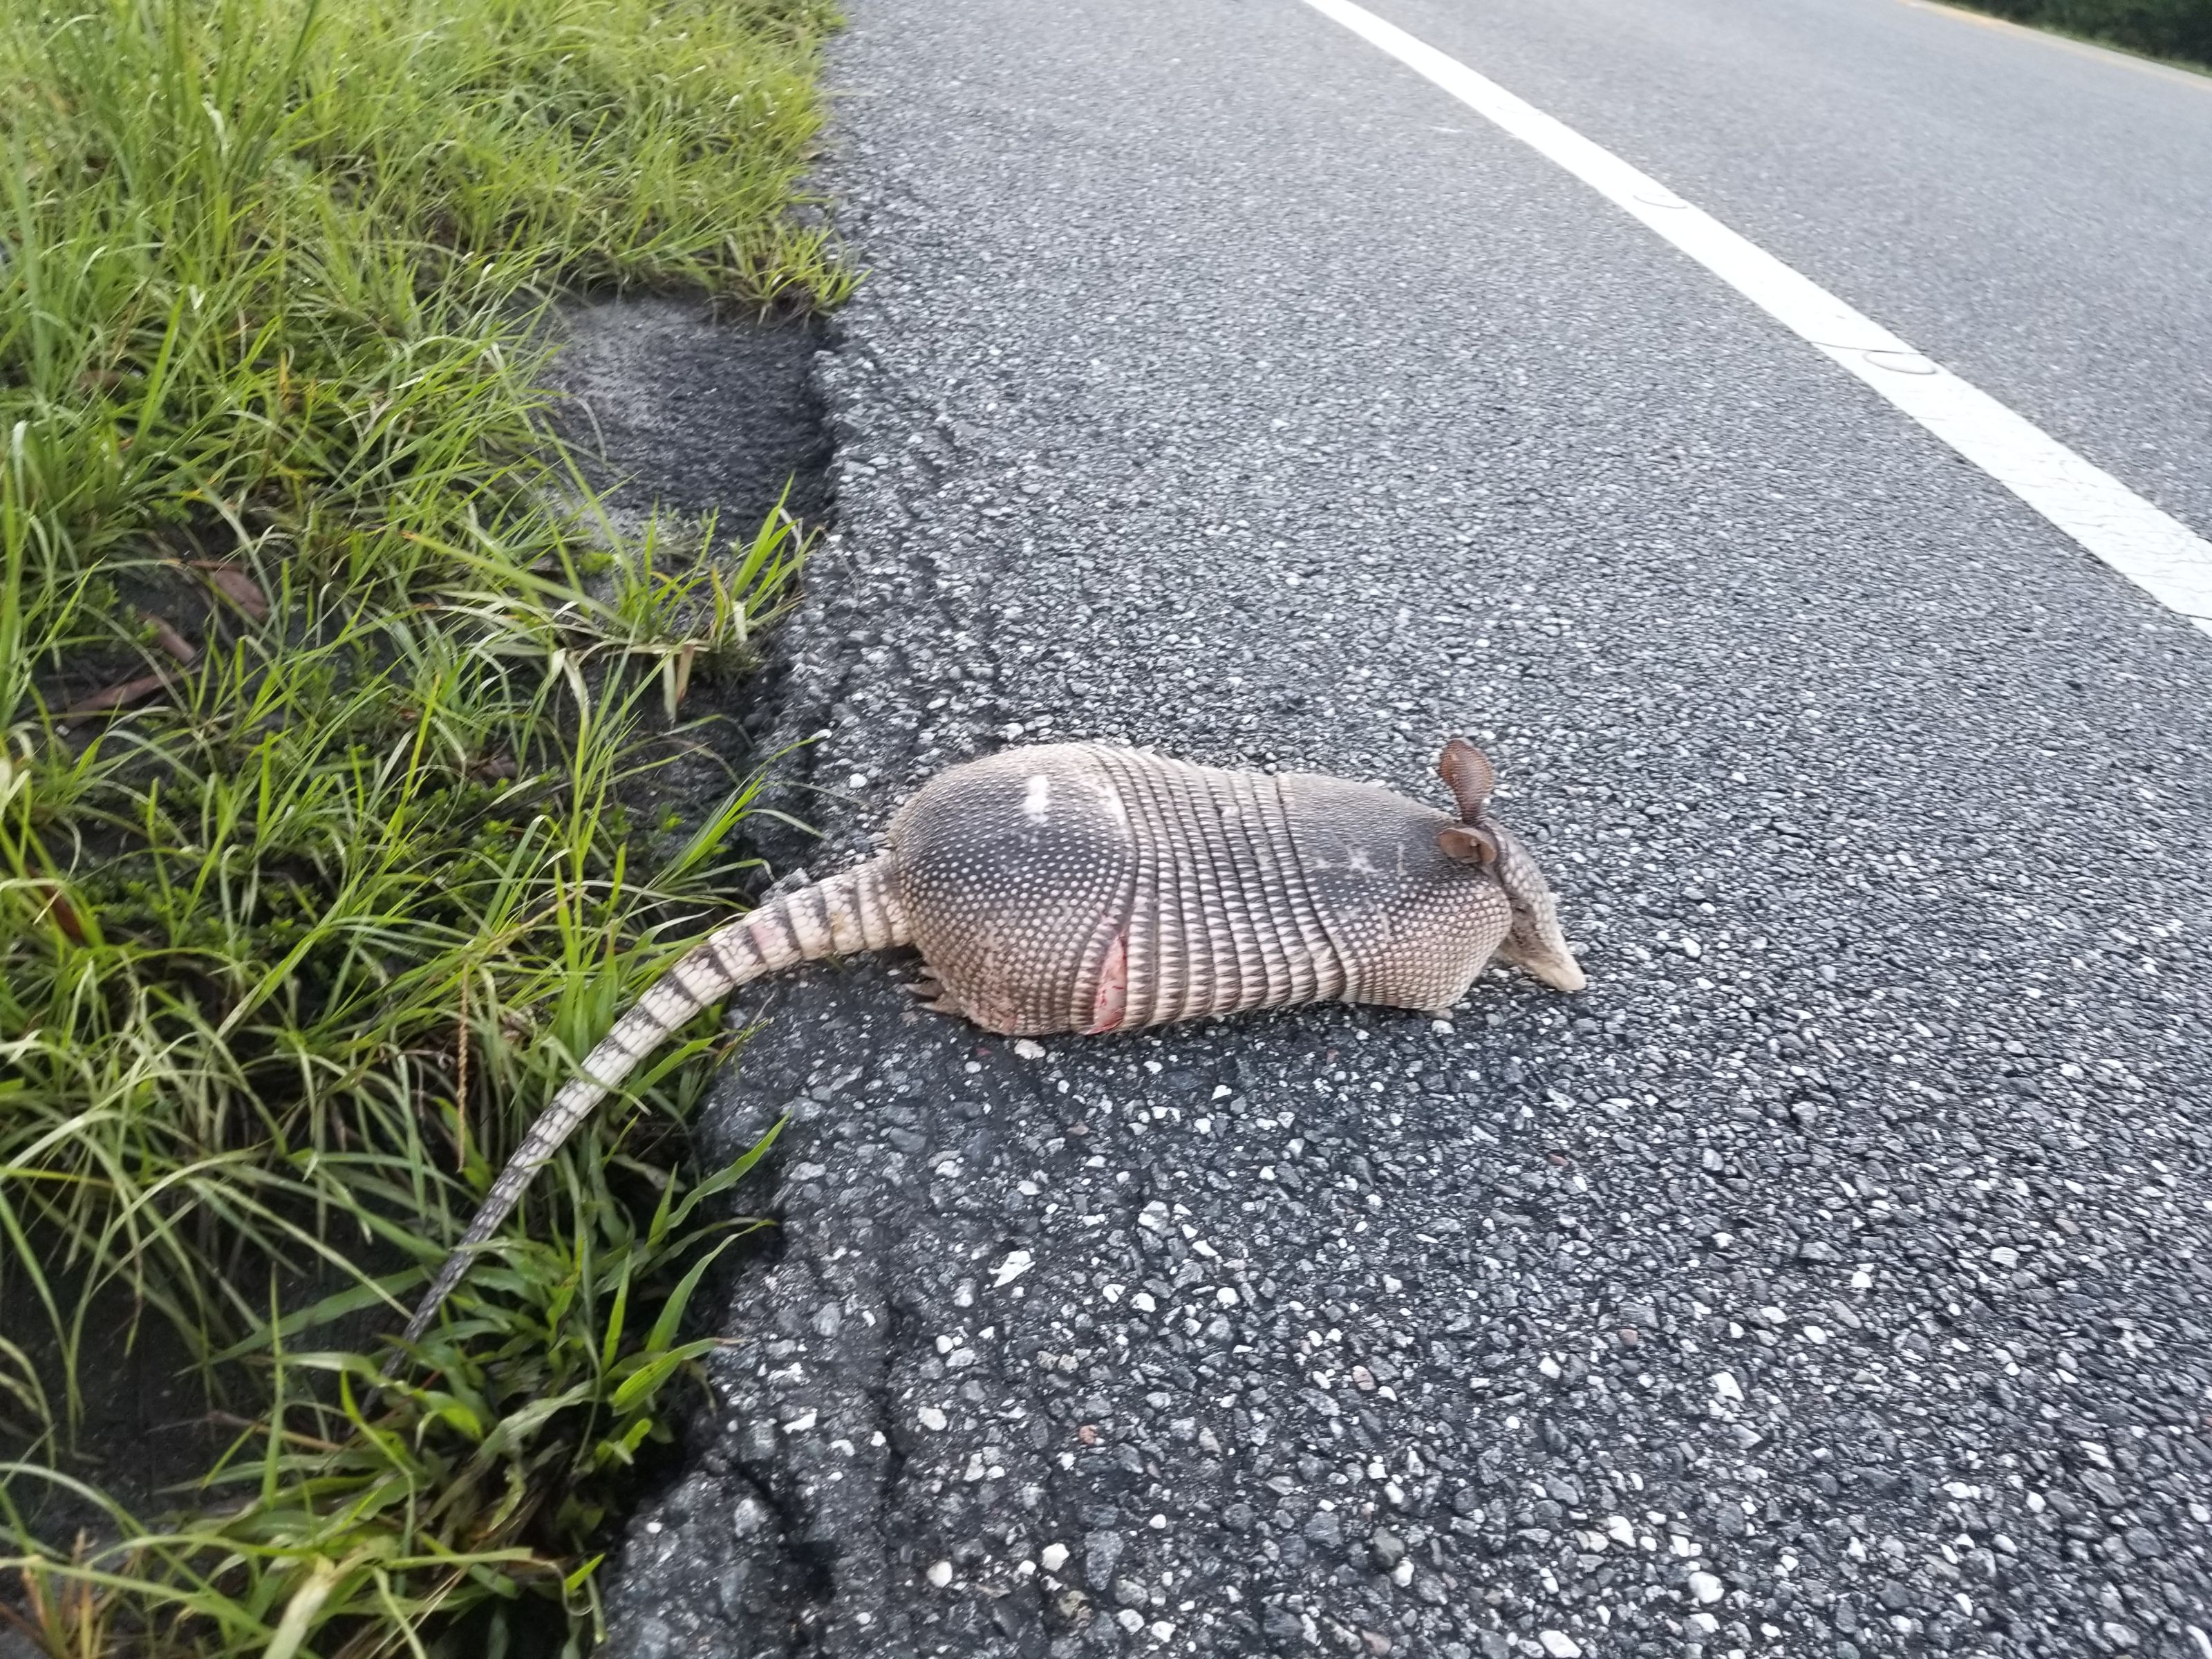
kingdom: Animalia
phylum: Chordata
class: Mammalia
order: Cingulata
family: Dasypodidae
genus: Dasypus
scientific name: Dasypus novemcinctus
